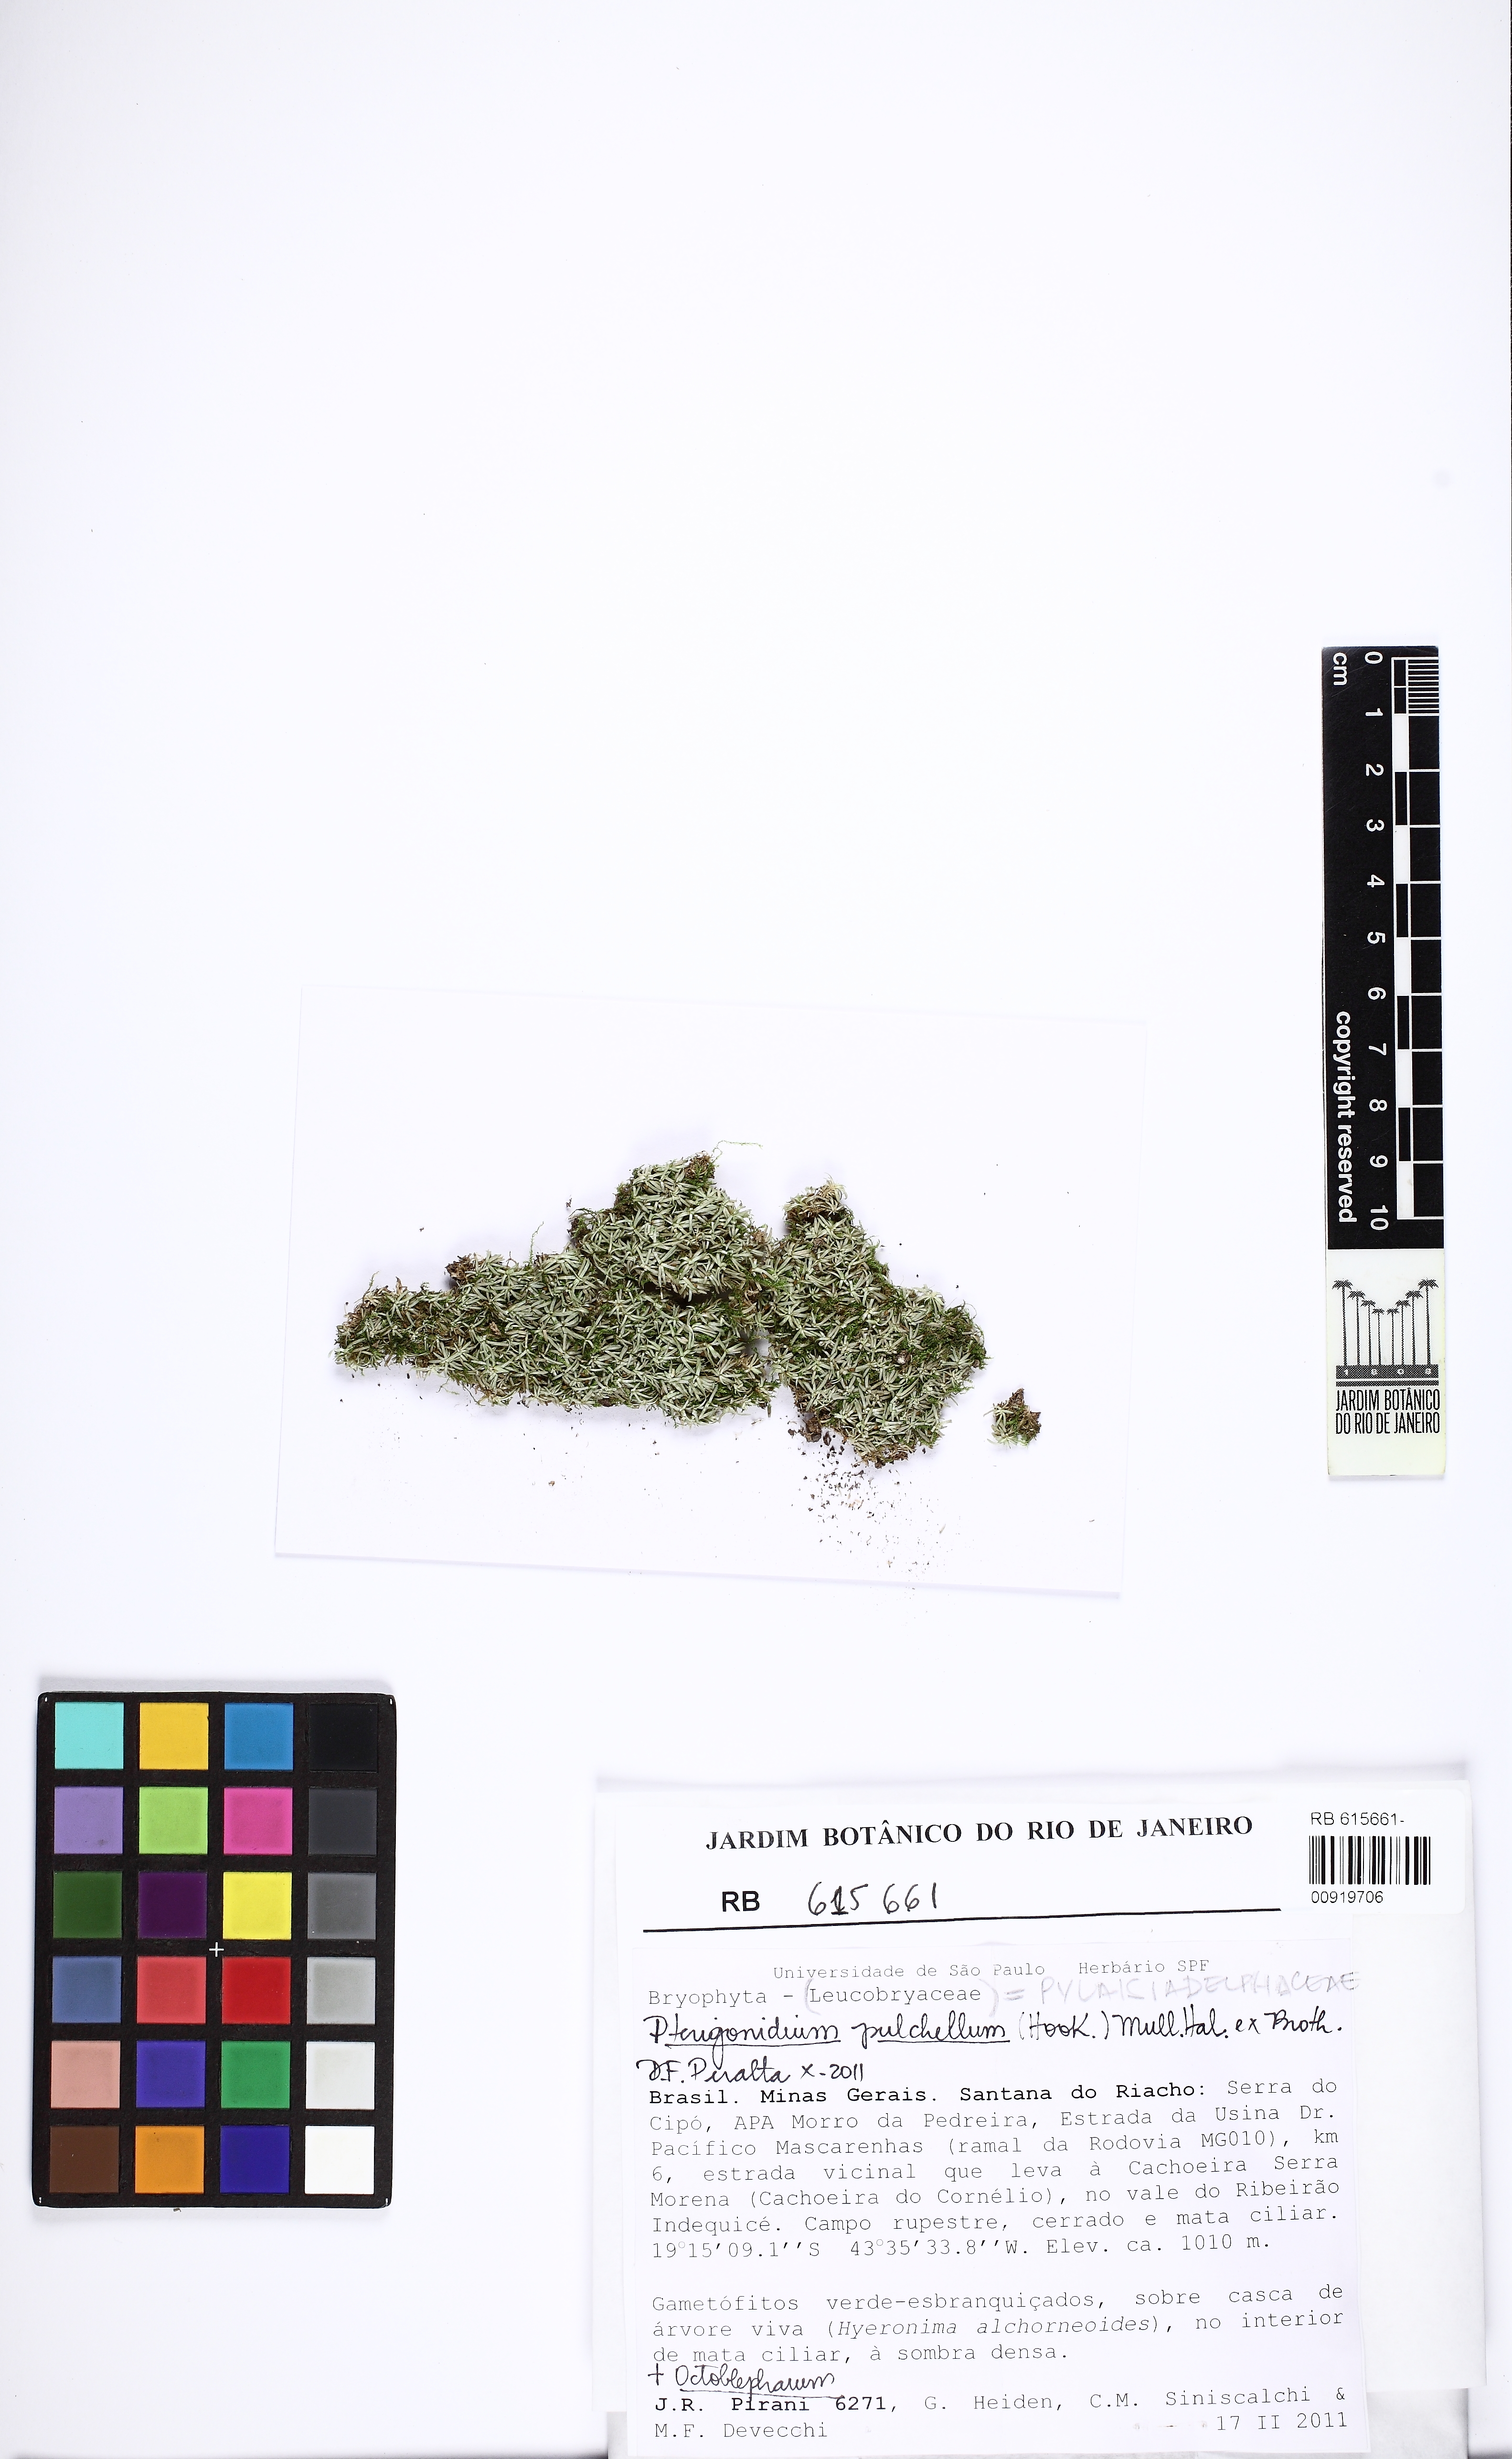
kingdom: Plantae
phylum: Bryophyta
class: Bryopsida
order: Hypnales
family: Pylaisiadelphaceae
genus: Pterogonidium
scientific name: Pterogonidium pulchellum
